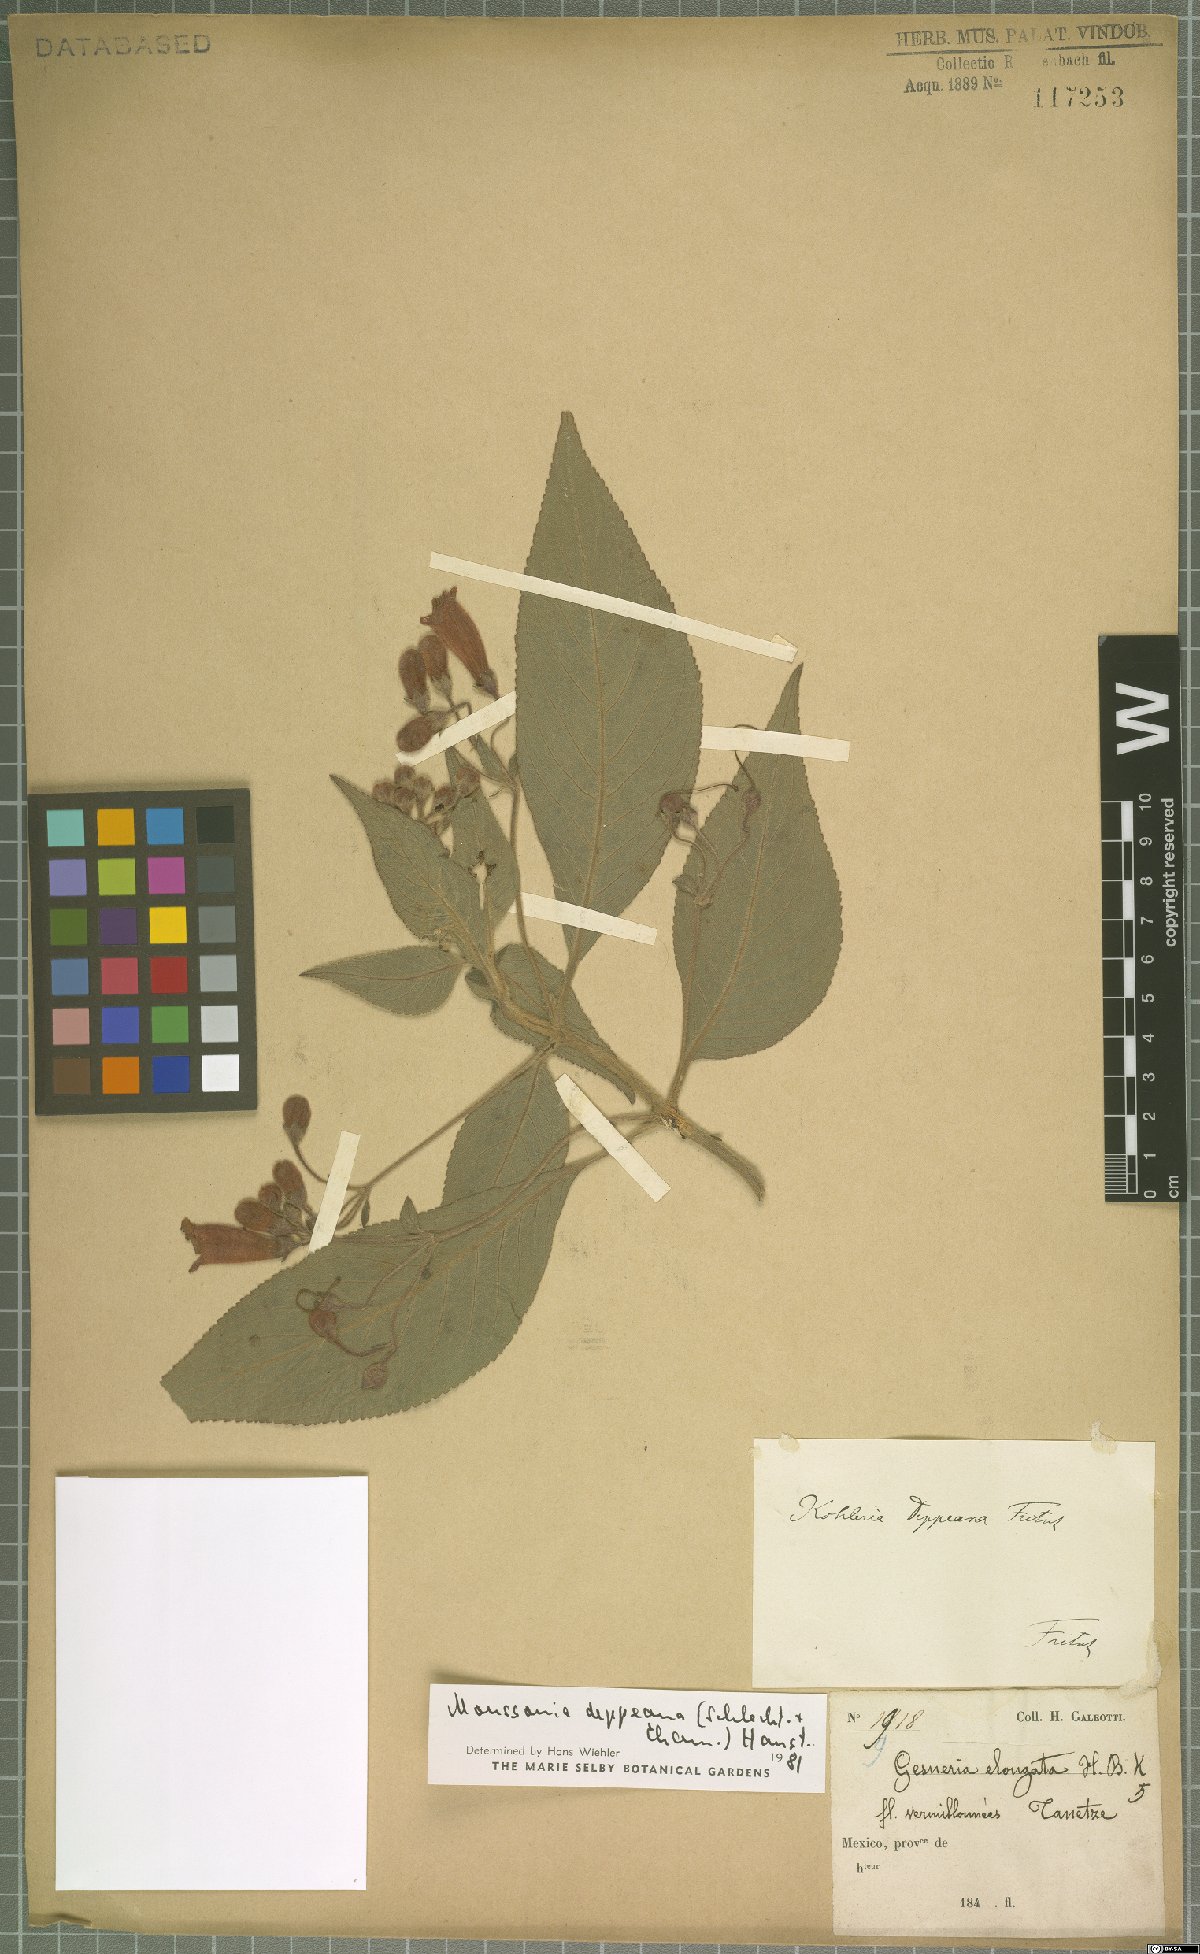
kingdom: Plantae
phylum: Tracheophyta
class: Magnoliopsida
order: Lamiales
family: Gesneriaceae
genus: Moussonia
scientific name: Moussonia deppeana
